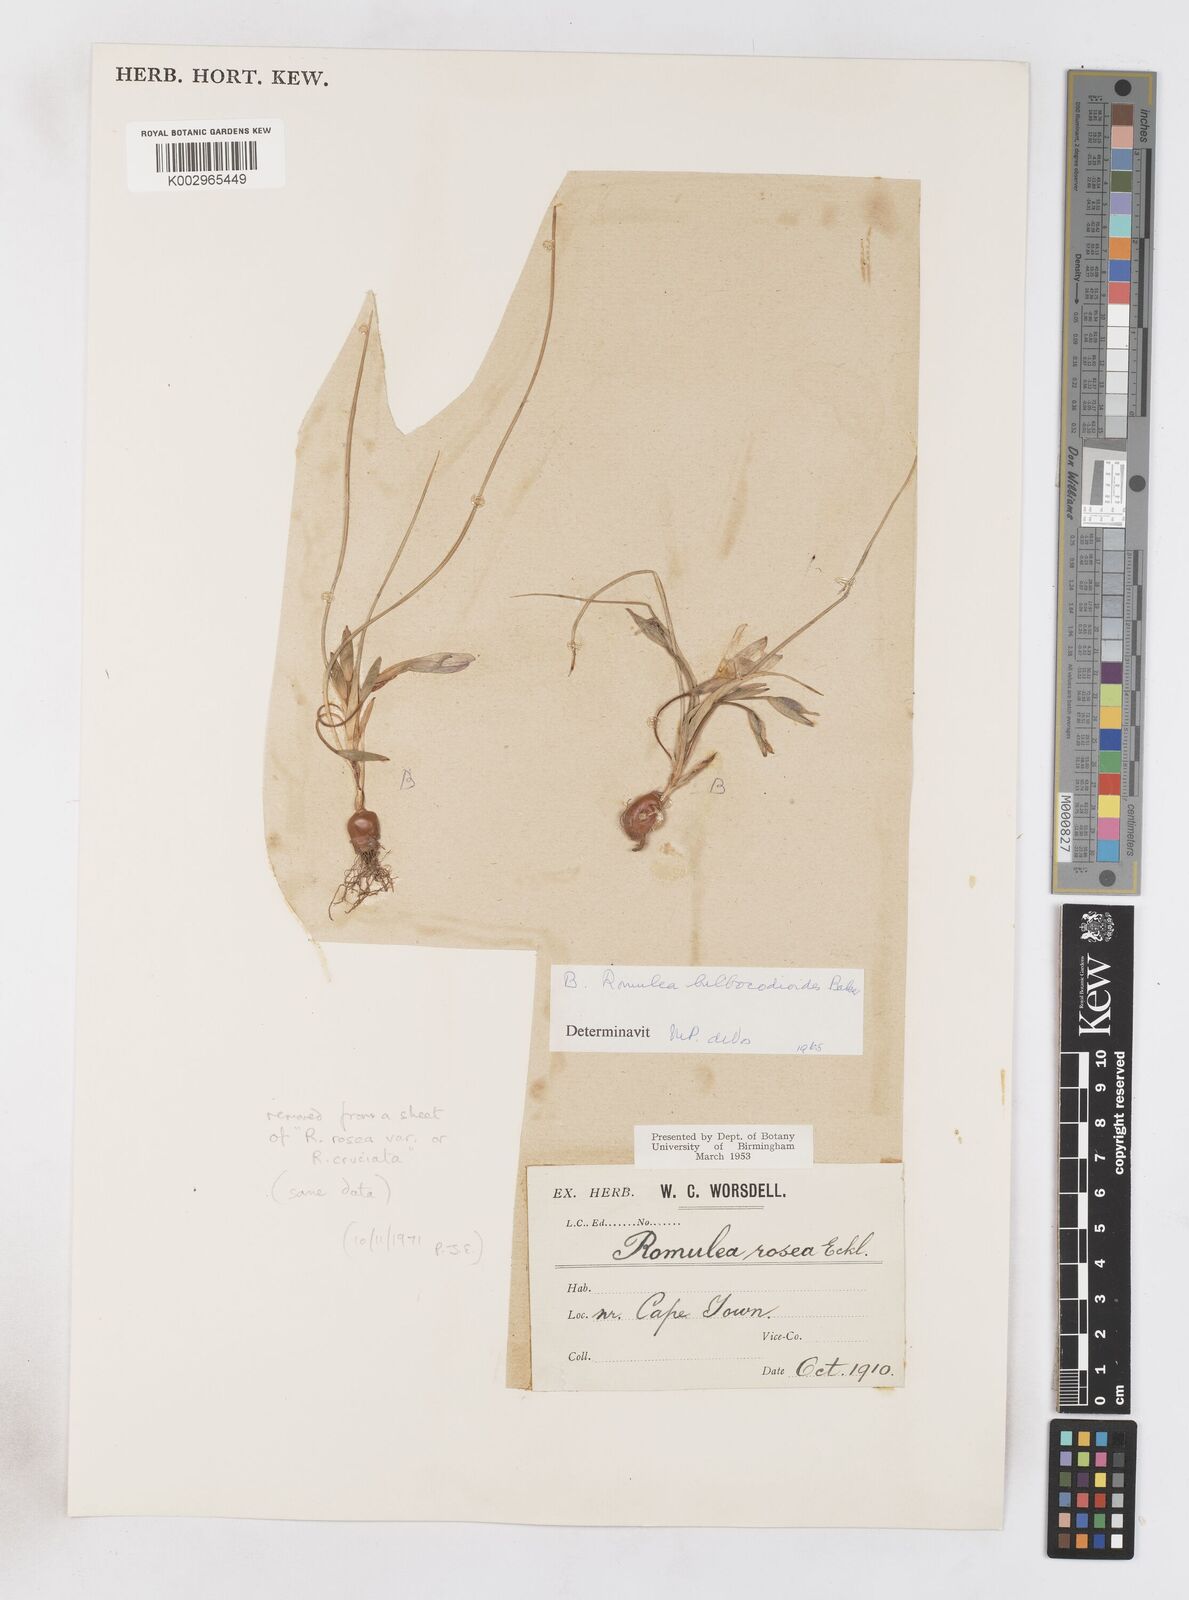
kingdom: Plantae
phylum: Tracheophyta
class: Liliopsida
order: Asparagales
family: Iridaceae
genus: Romulea
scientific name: Romulea flava
